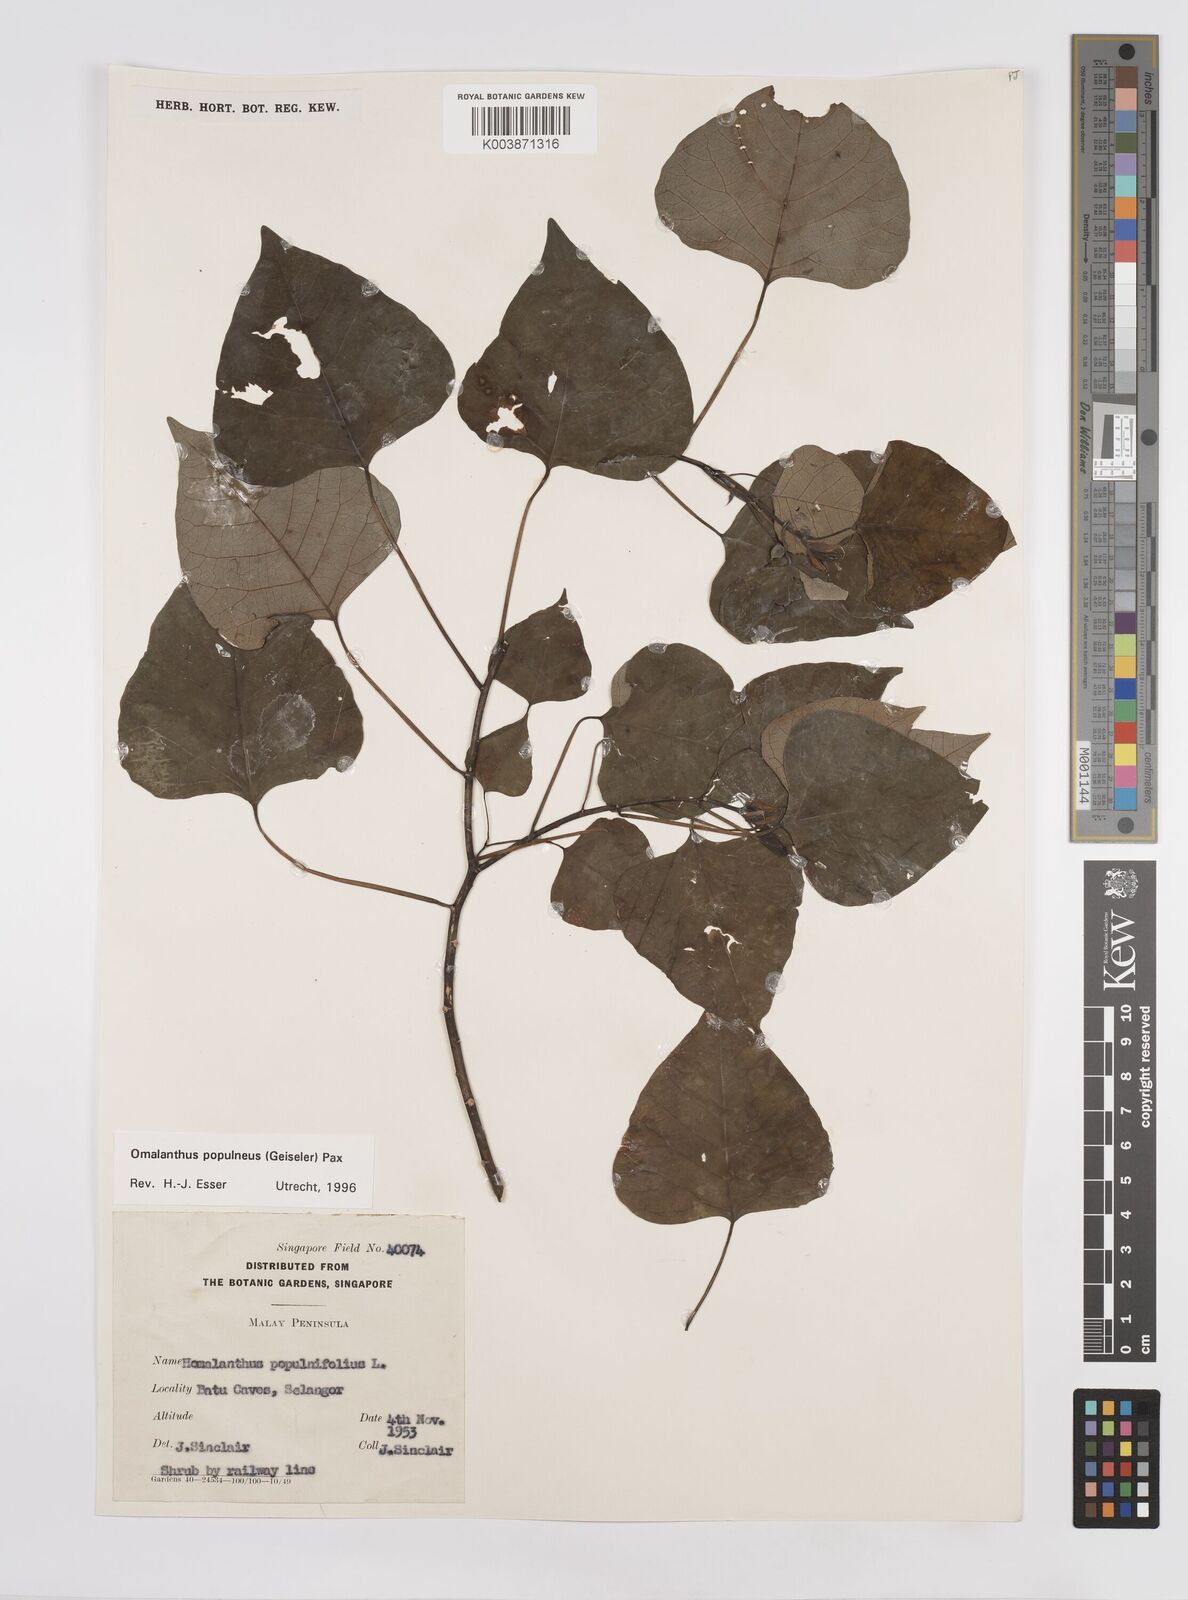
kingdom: Plantae
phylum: Tracheophyta
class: Magnoliopsida
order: Malpighiales
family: Euphorbiaceae
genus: Homalanthus
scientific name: Homalanthus populneus
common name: Spurge
